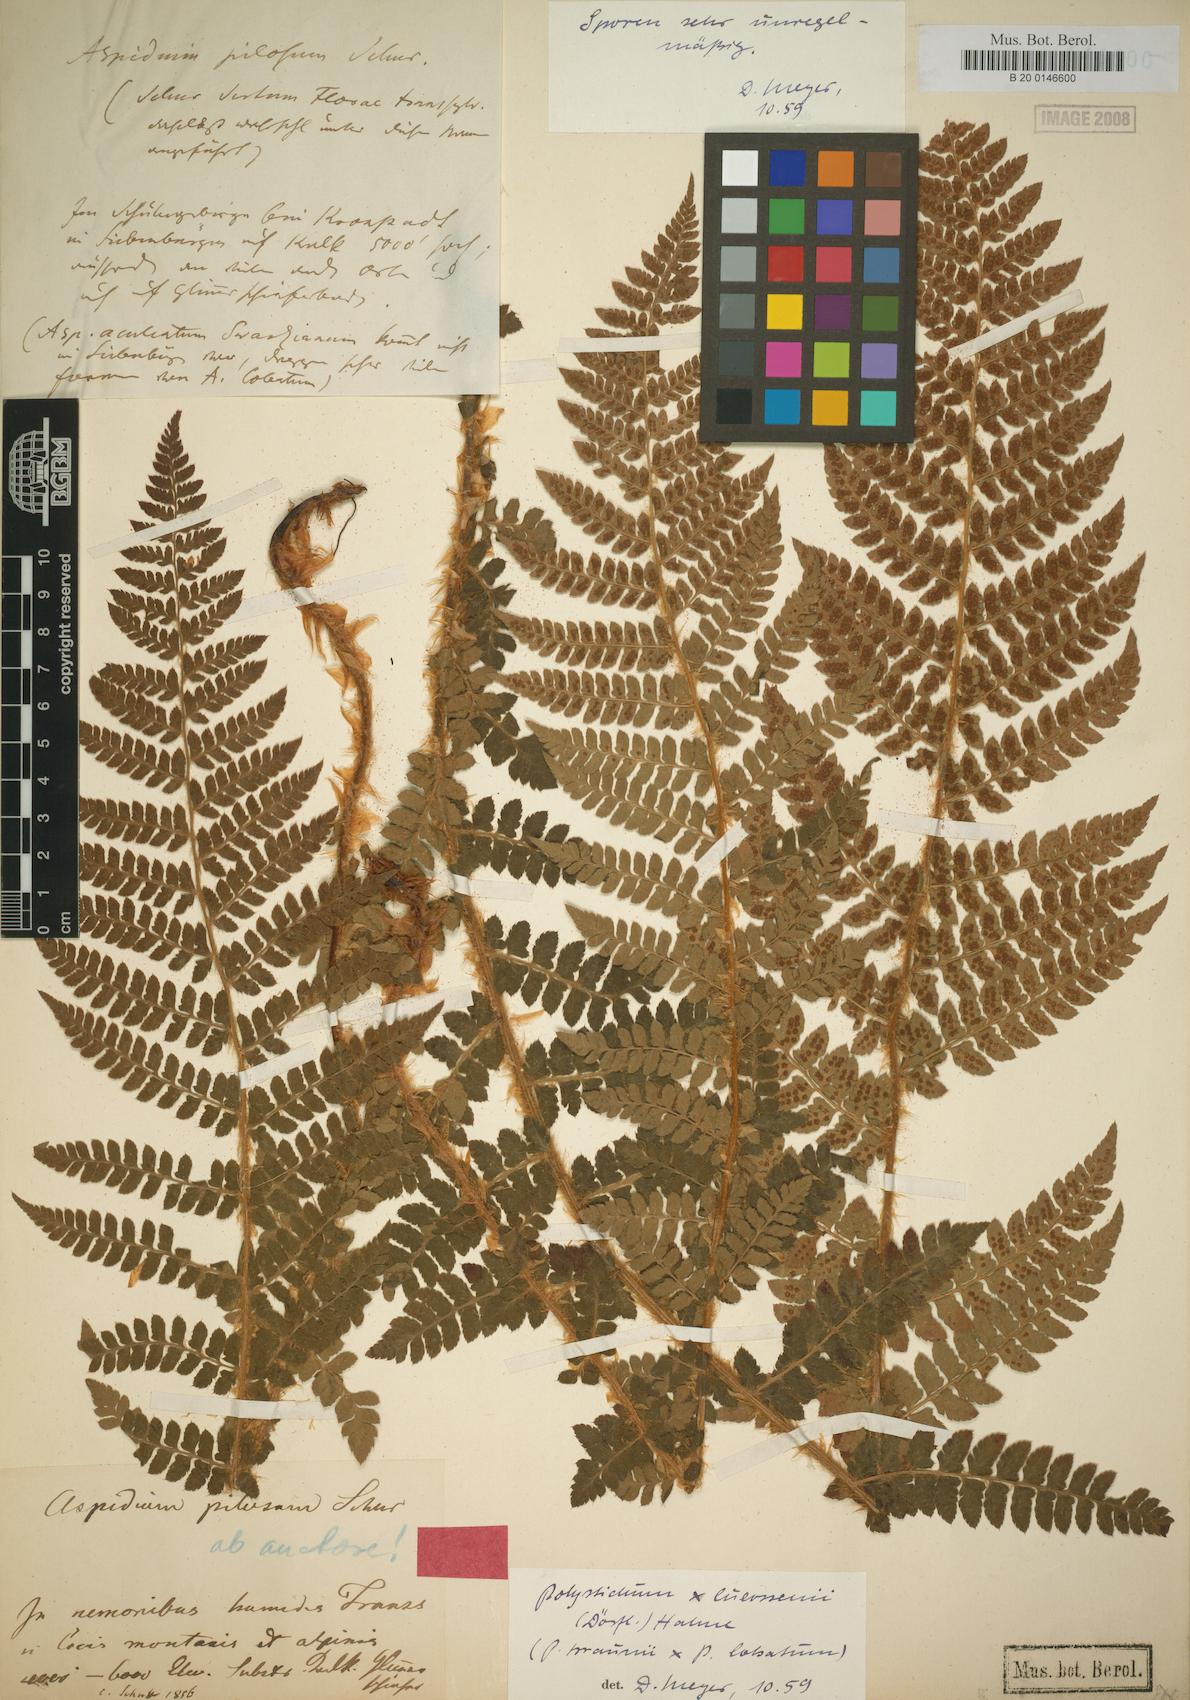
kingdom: Plantae
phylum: Tracheophyta
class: Polypodiopsida
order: Polypodiales
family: Dryopteridaceae
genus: Polystichum
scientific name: Polystichum luerssenii
